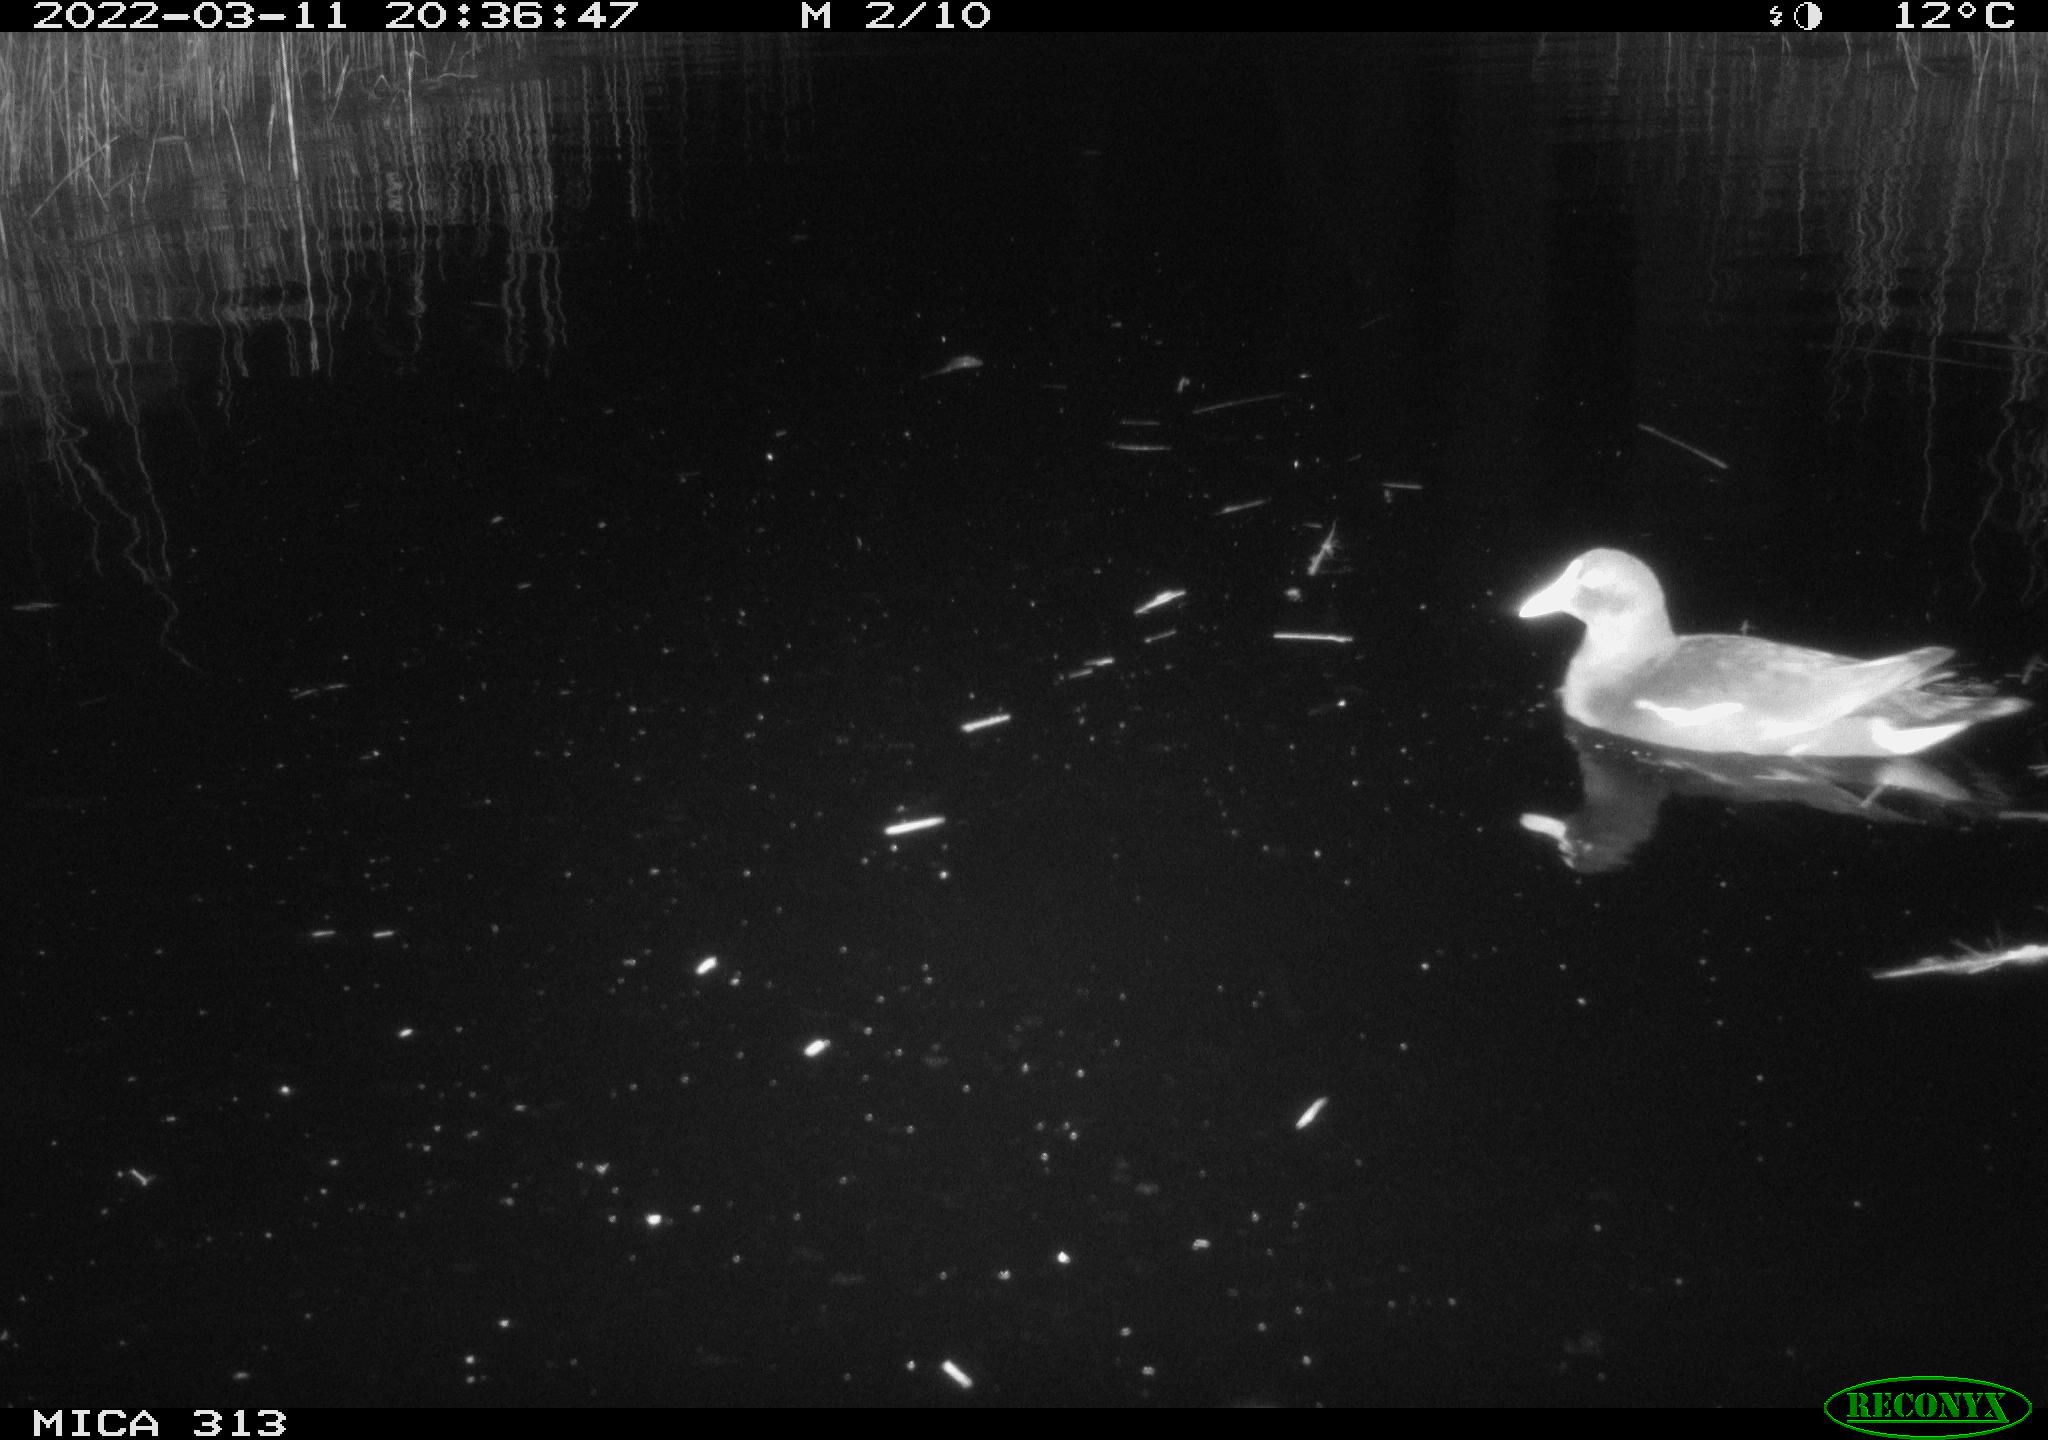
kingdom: Animalia
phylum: Chordata
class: Aves
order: Gruiformes
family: Rallidae
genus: Gallinula
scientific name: Gallinula chloropus
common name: Common moorhen
